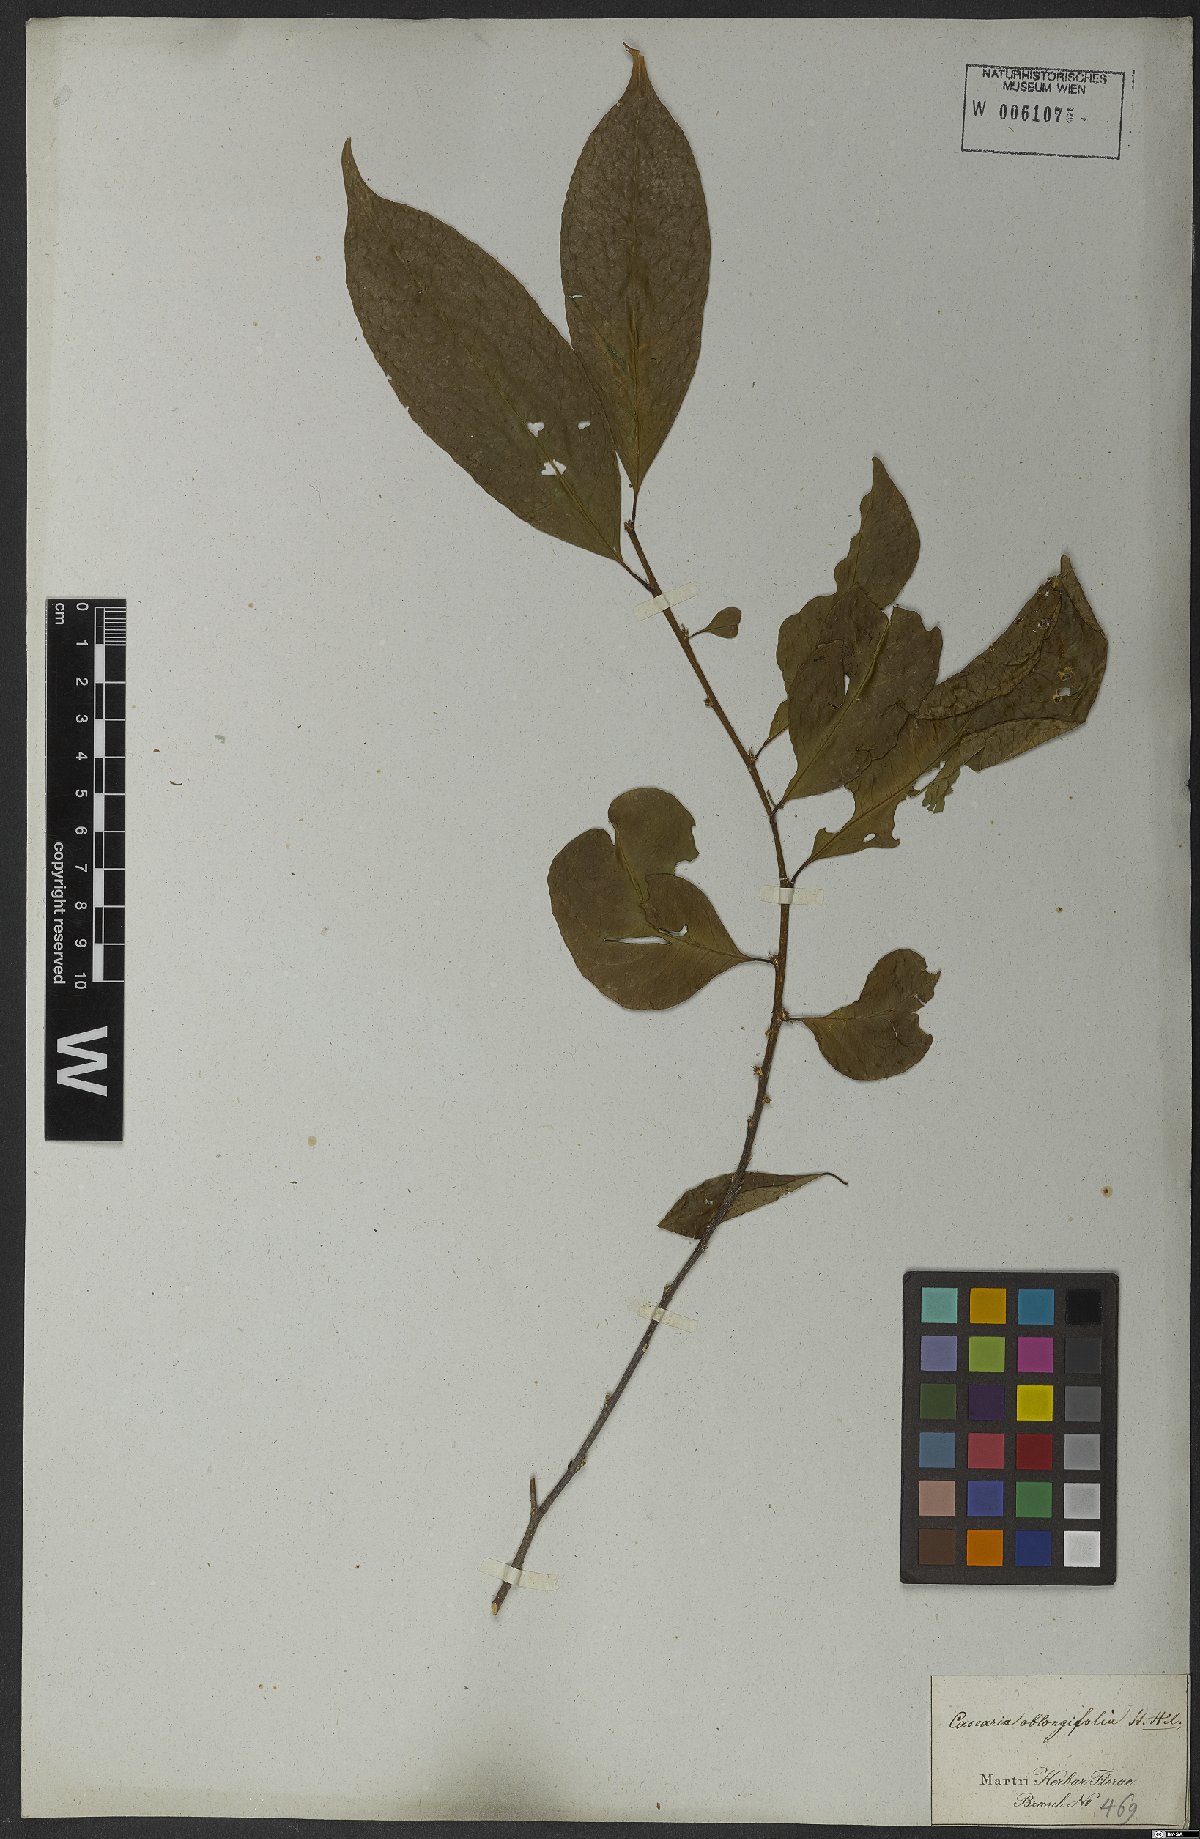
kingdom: Plantae
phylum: Tracheophyta
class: Magnoliopsida
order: Malpighiales
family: Salicaceae
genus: Casearia
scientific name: Casearia oblongifolia
